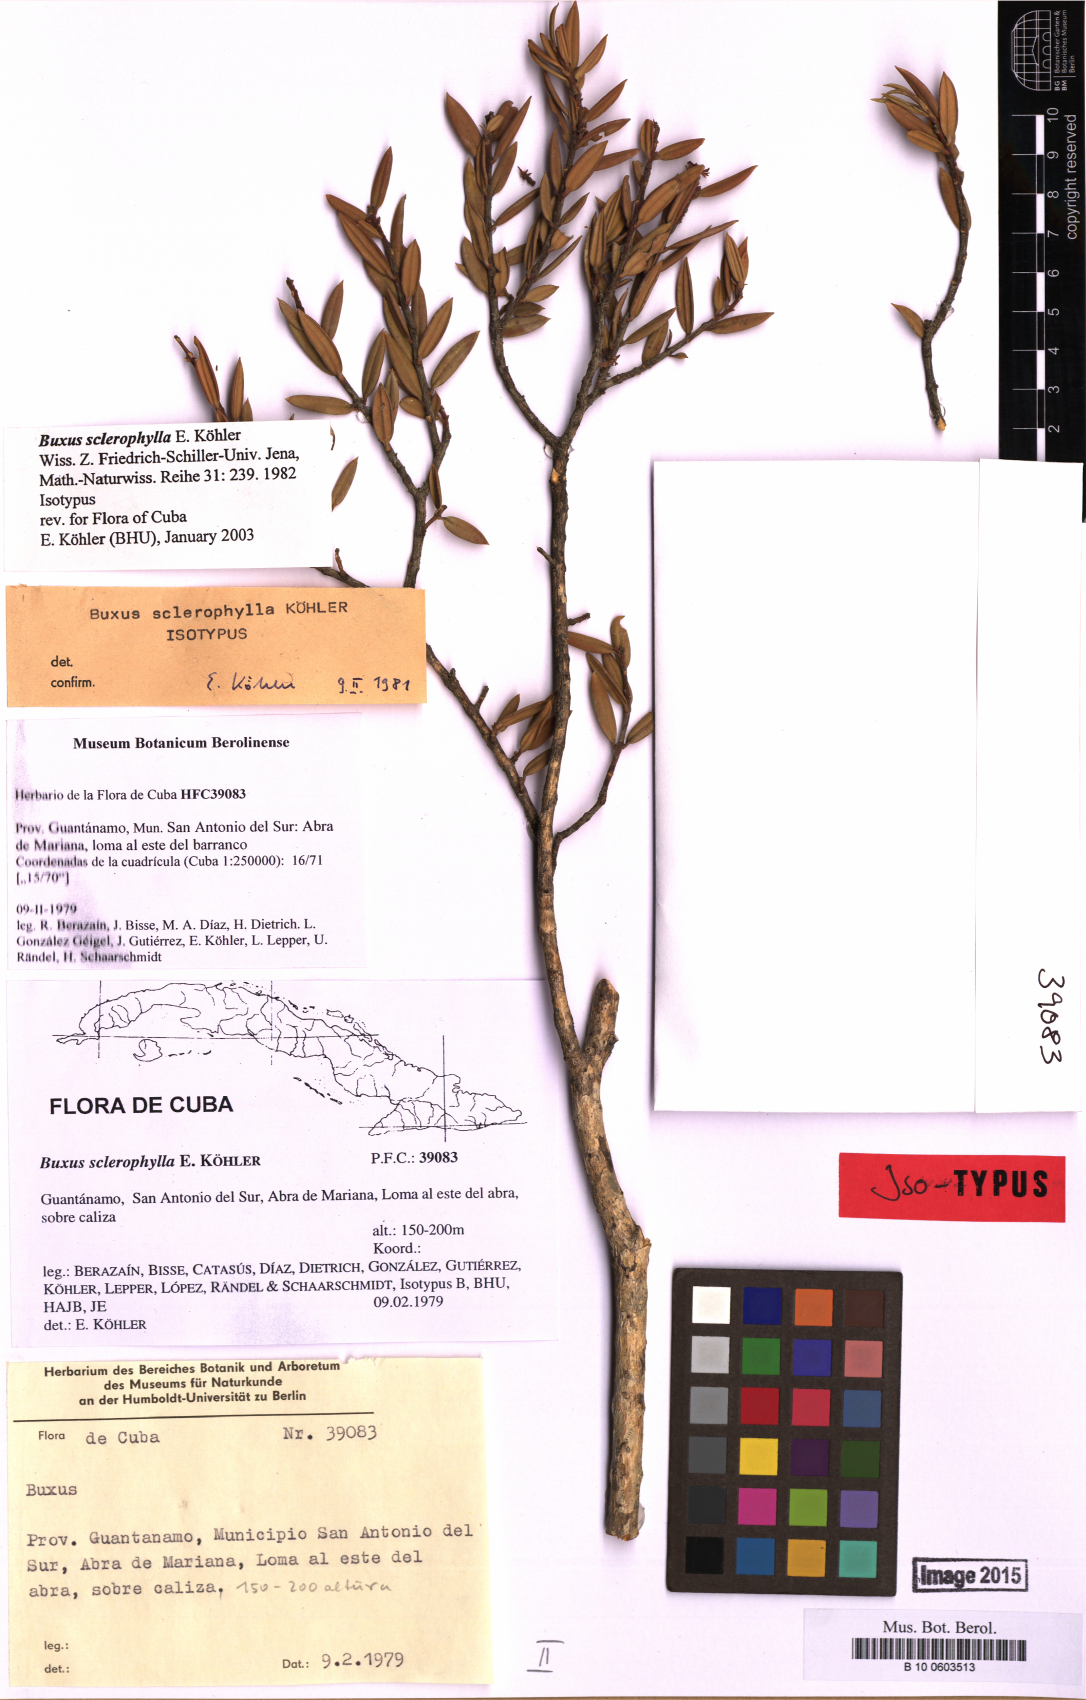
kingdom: Plantae
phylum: Tracheophyta
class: Magnoliopsida
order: Buxales
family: Buxaceae
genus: Buxus
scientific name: Buxus sclerophylla
